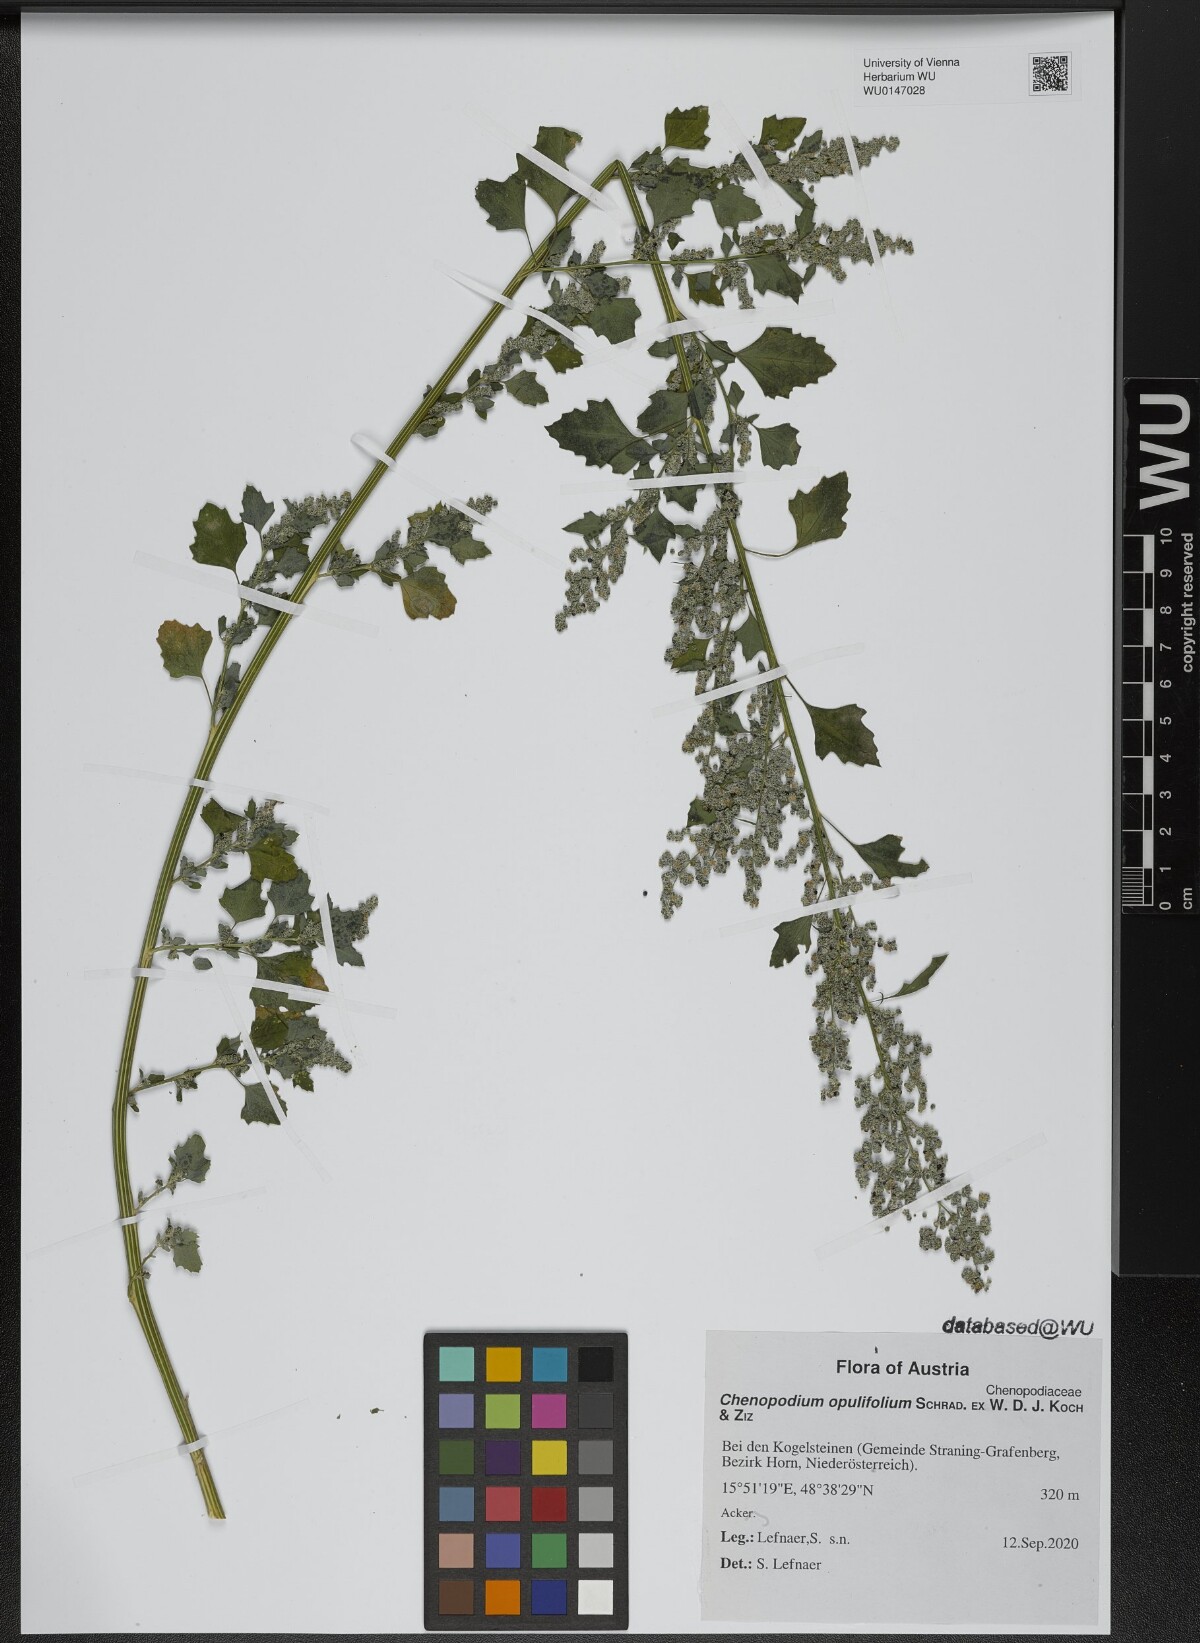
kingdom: Plantae
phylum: Tracheophyta
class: Magnoliopsida
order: Caryophyllales
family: Amaranthaceae
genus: Chenopodium
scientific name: Chenopodium opulifolium
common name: Grey goosefoot
